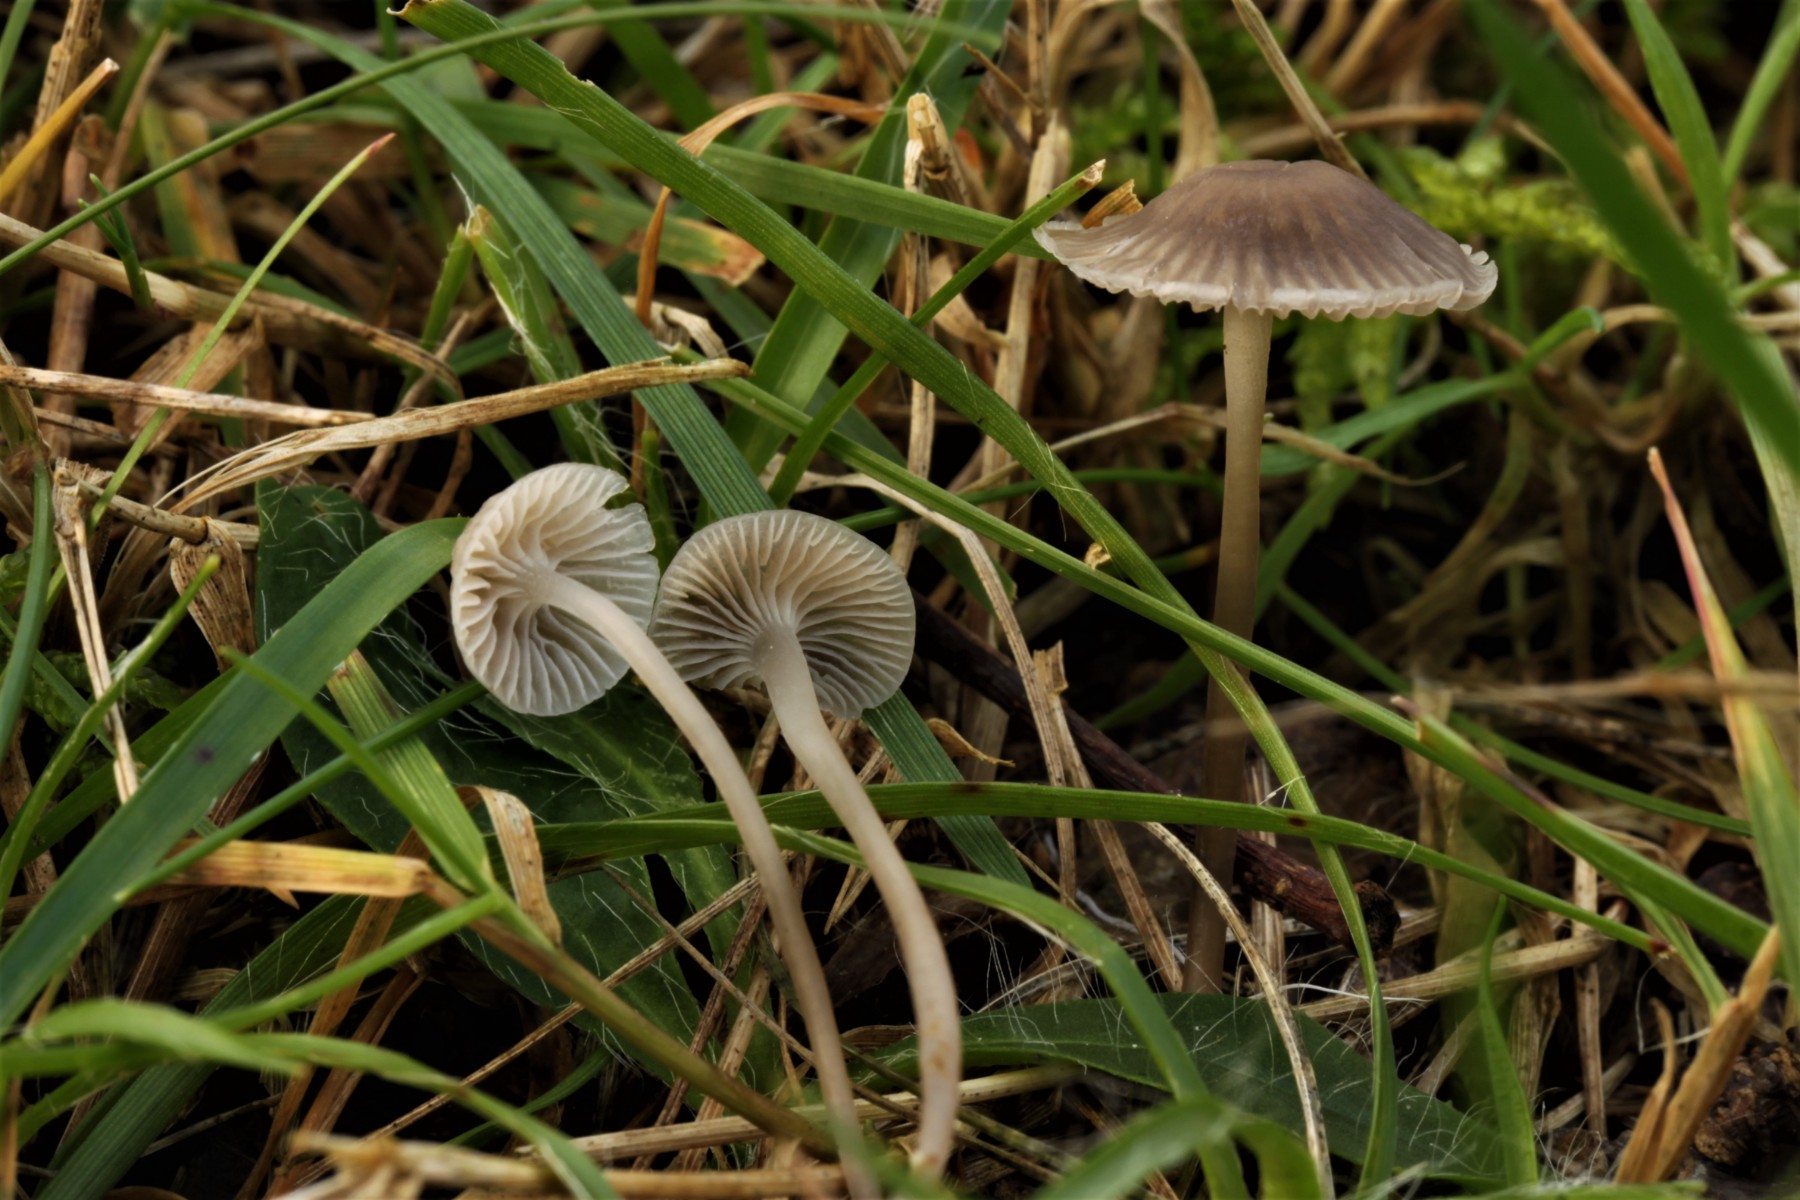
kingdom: Fungi
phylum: Basidiomycota
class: Agaricomycetes
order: Agaricales
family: Mycenaceae
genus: Mycena
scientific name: Mycena cinerella
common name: mel-huesvamp
